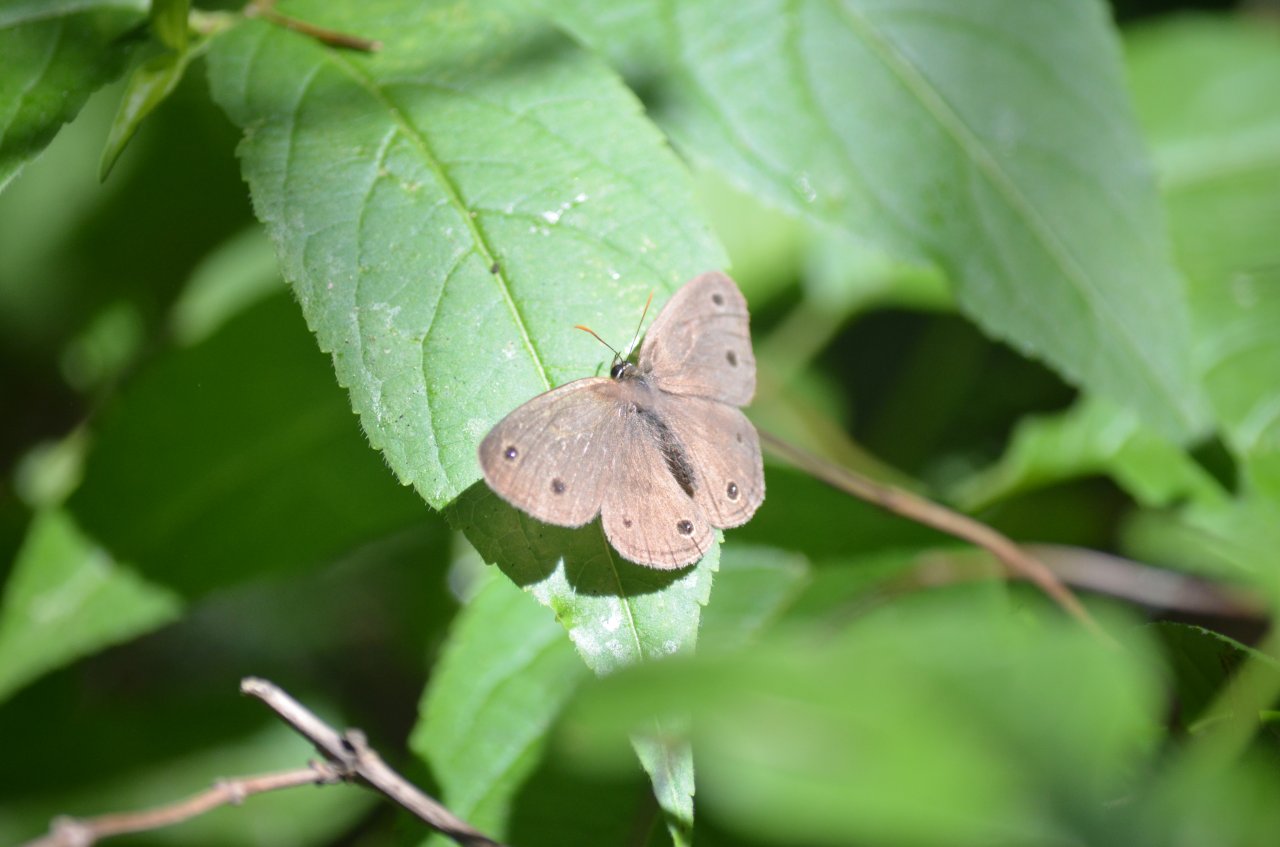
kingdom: Animalia
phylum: Arthropoda
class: Insecta
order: Lepidoptera
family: Nymphalidae
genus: Euptychia
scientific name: Euptychia cymela
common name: Little Wood Satyr
